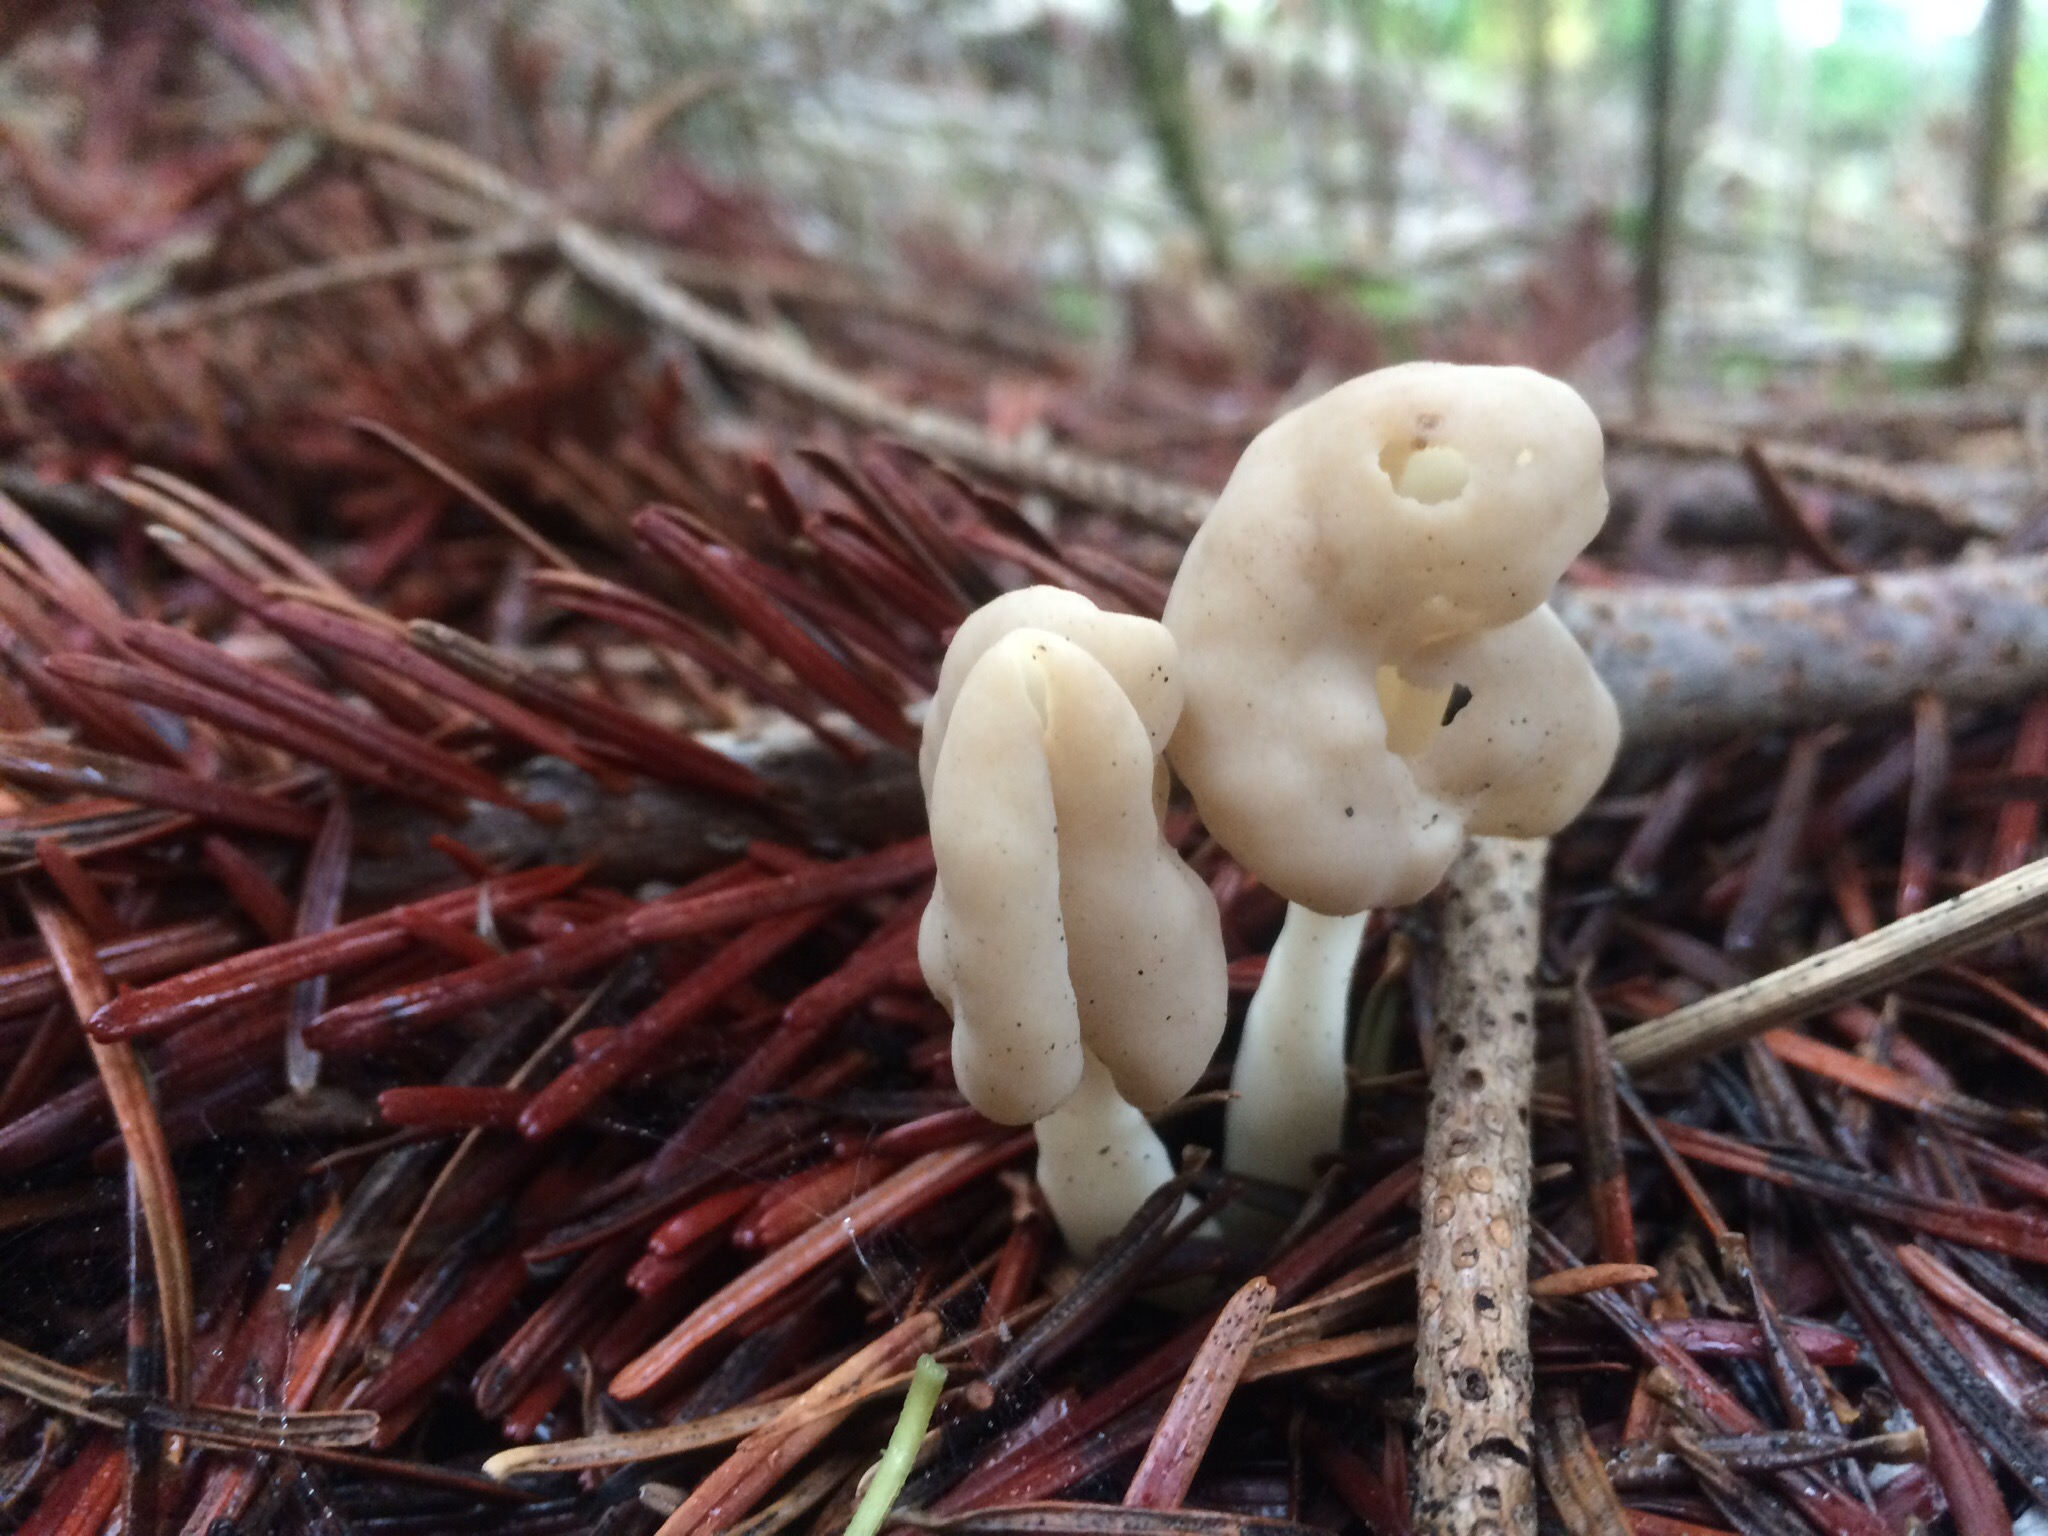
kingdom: Fungi
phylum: Ascomycota
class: Pezizomycetes
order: Pezizales
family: Helvellaceae
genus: Helvella
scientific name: Helvella elastica
